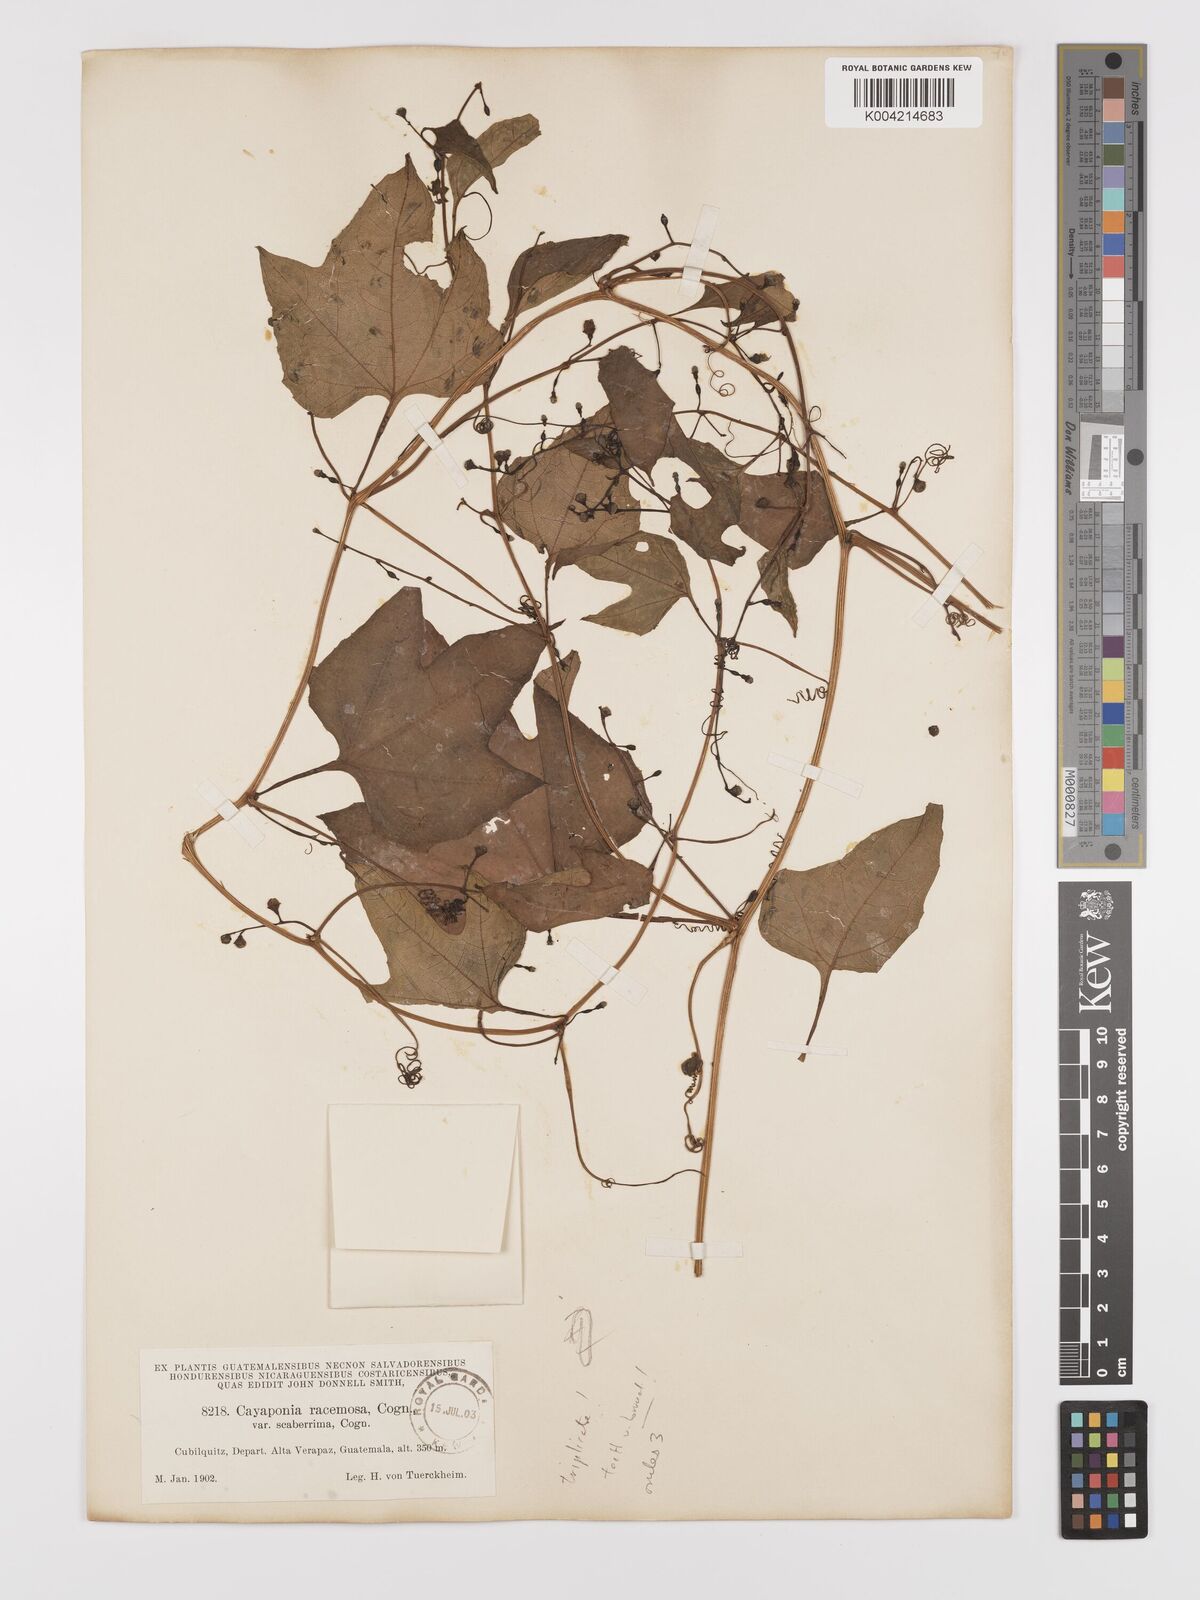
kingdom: Plantae
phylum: Tracheophyta
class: Magnoliopsida
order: Cucurbitales
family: Cucurbitaceae
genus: Cayaponia
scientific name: Cayaponia racemosa
